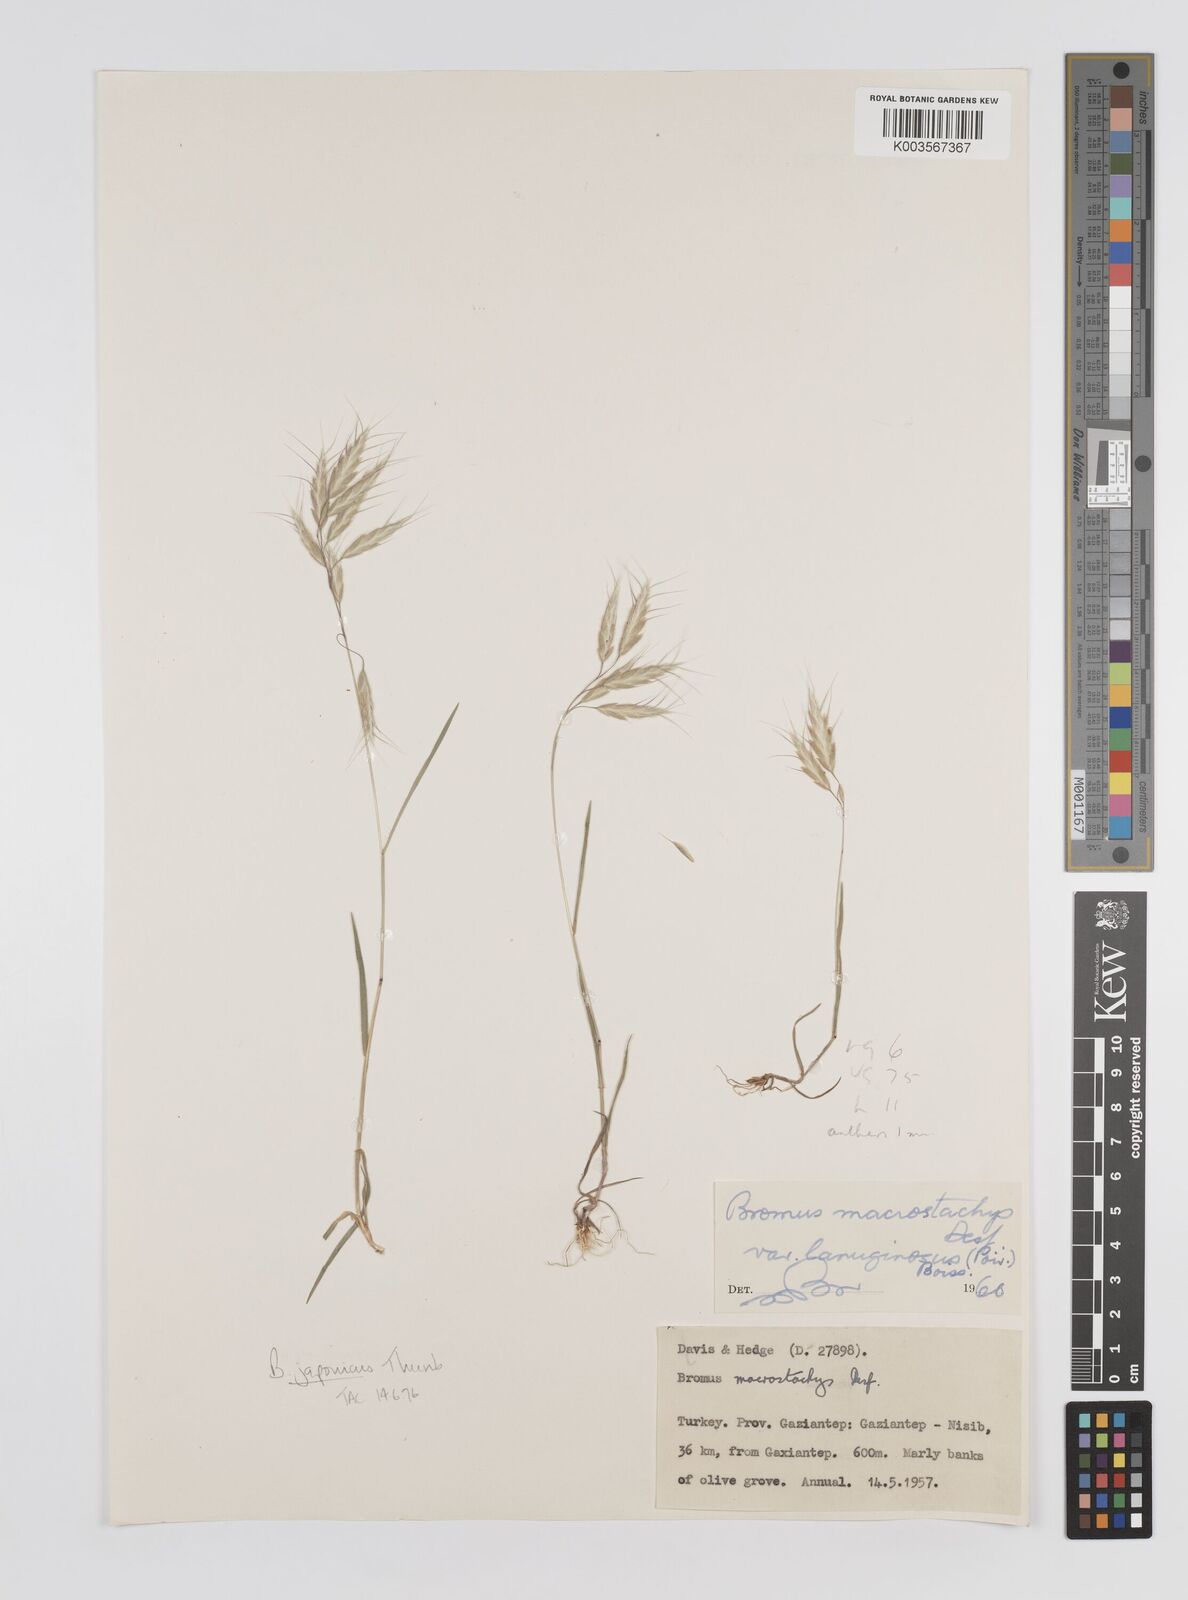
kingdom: Plantae
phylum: Tracheophyta
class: Liliopsida
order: Poales
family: Poaceae
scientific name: Poaceae
